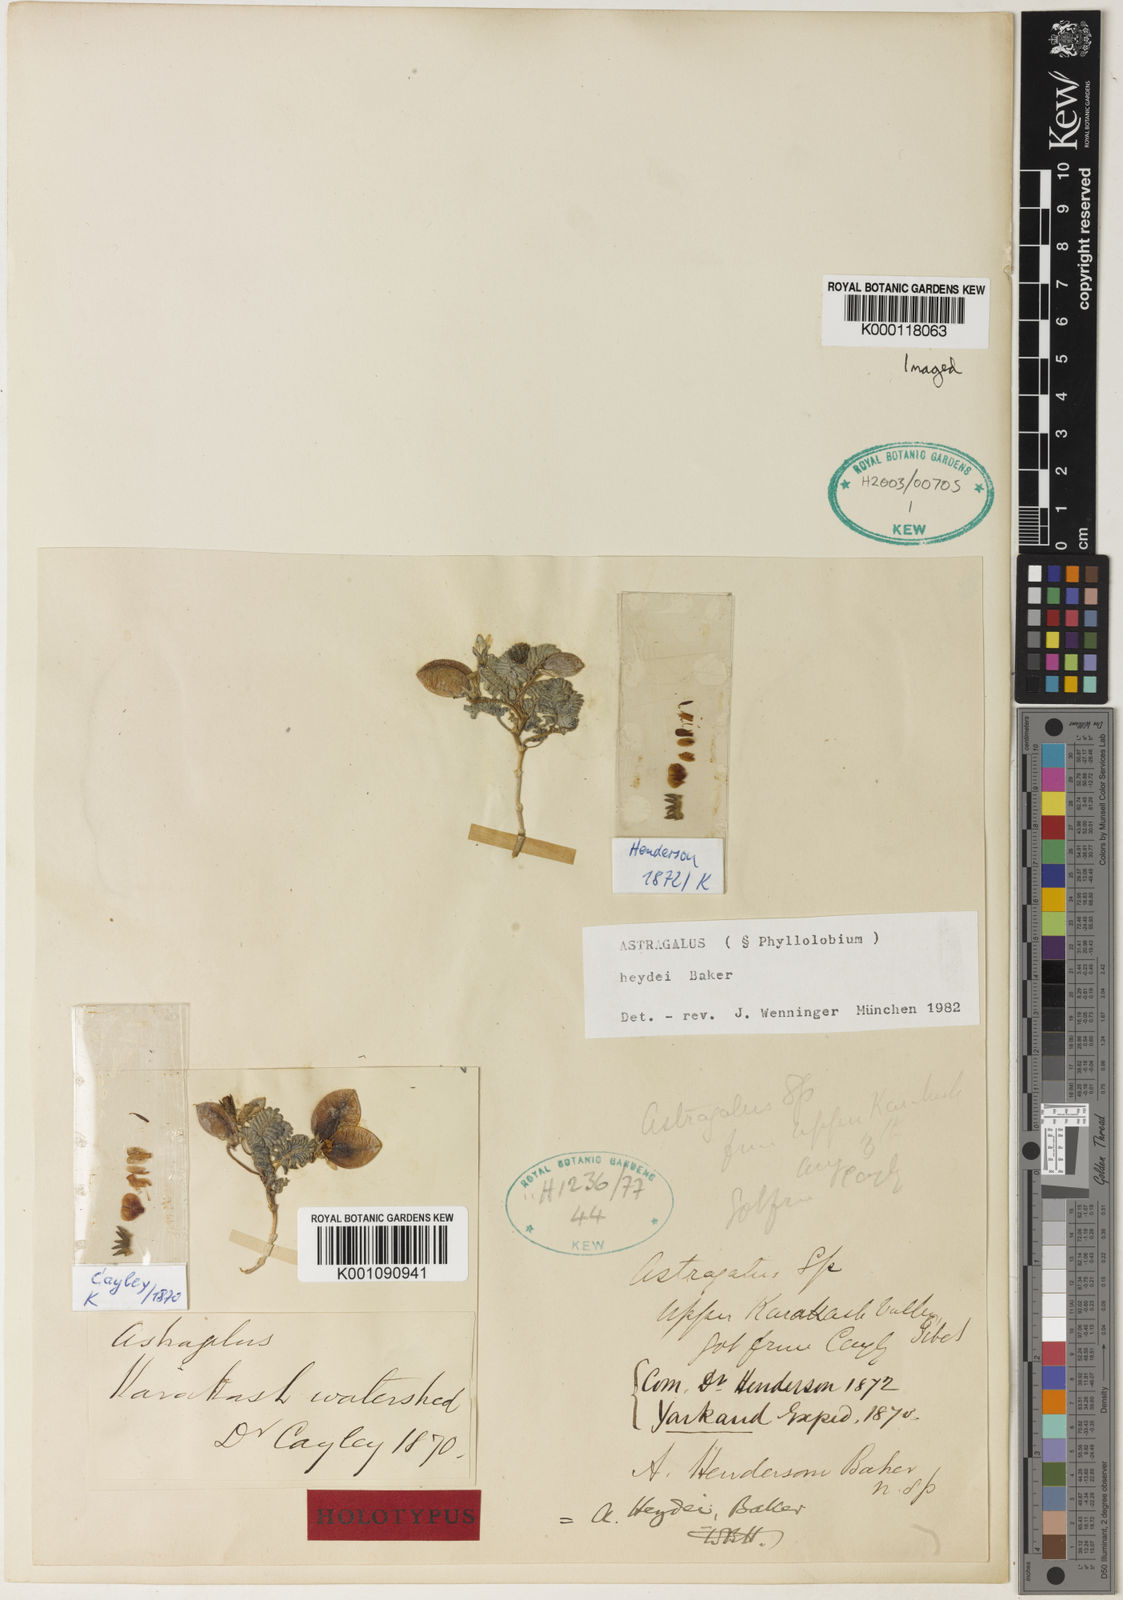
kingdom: Plantae
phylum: Tracheophyta
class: Magnoliopsida
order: Fabales
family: Fabaceae
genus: Astragalus
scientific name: Astragalus
